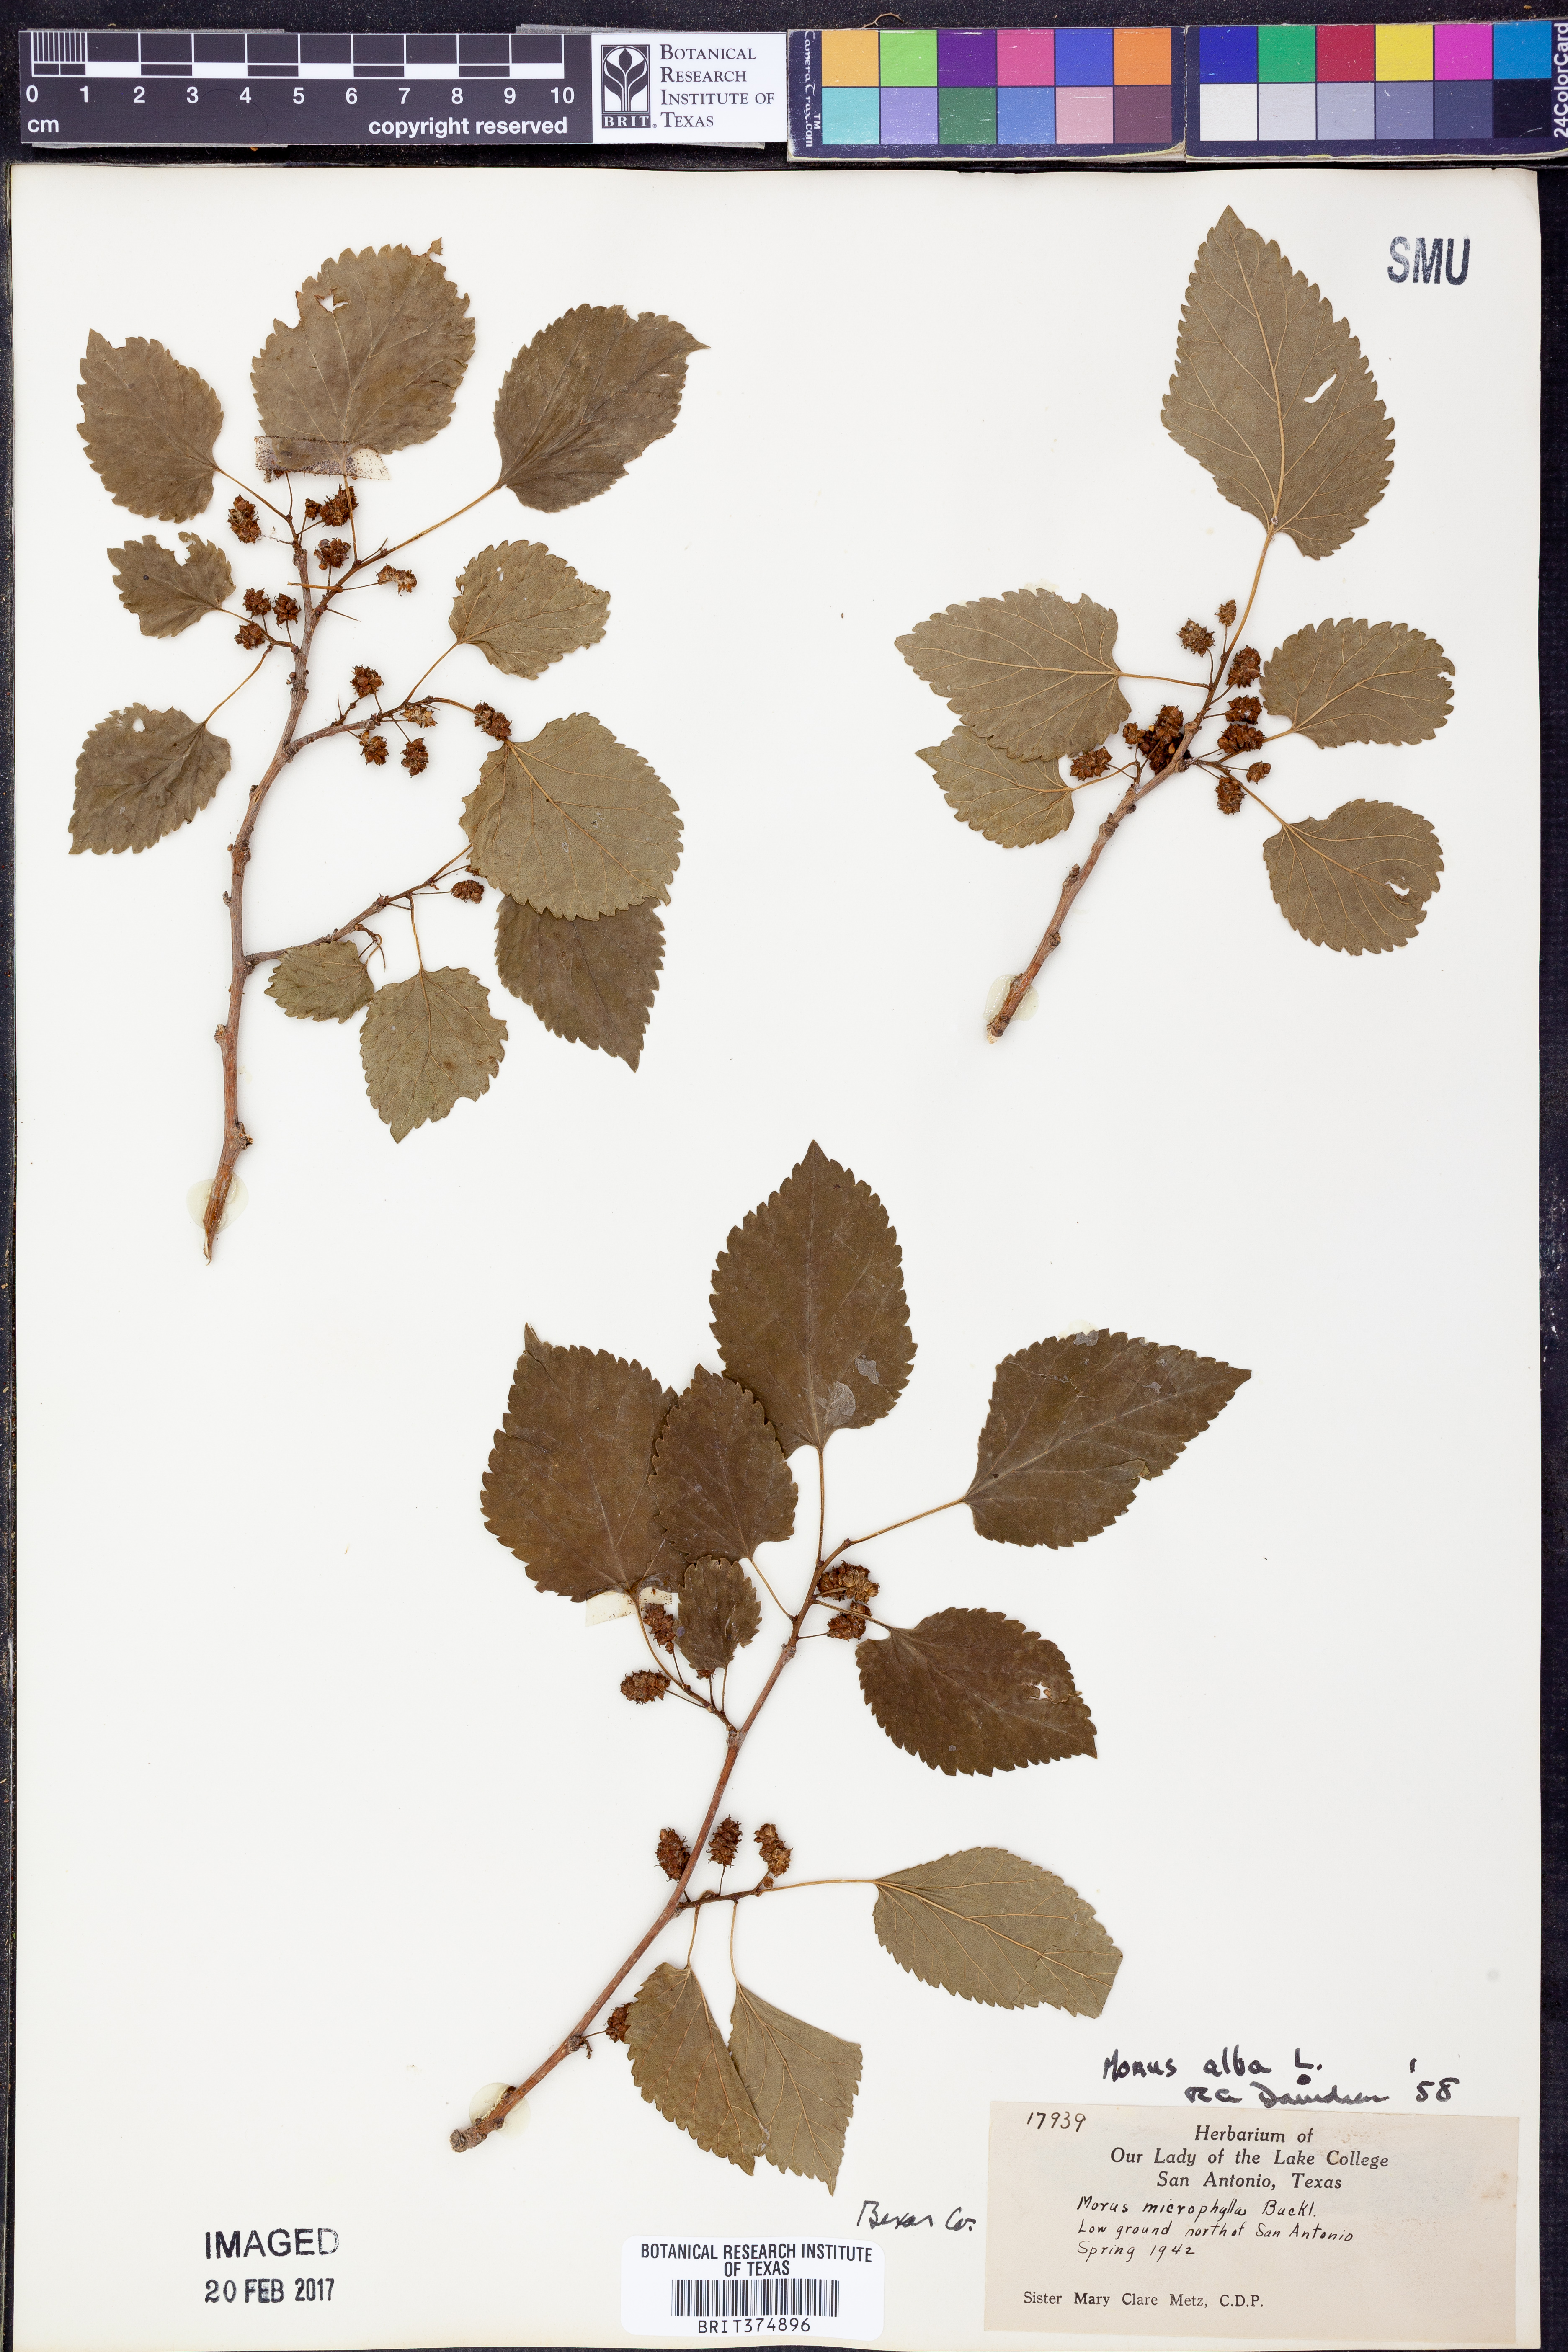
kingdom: Plantae
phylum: Tracheophyta
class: Magnoliopsida
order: Rosales
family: Moraceae
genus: Morus
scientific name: Morus alba
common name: White mulberry
